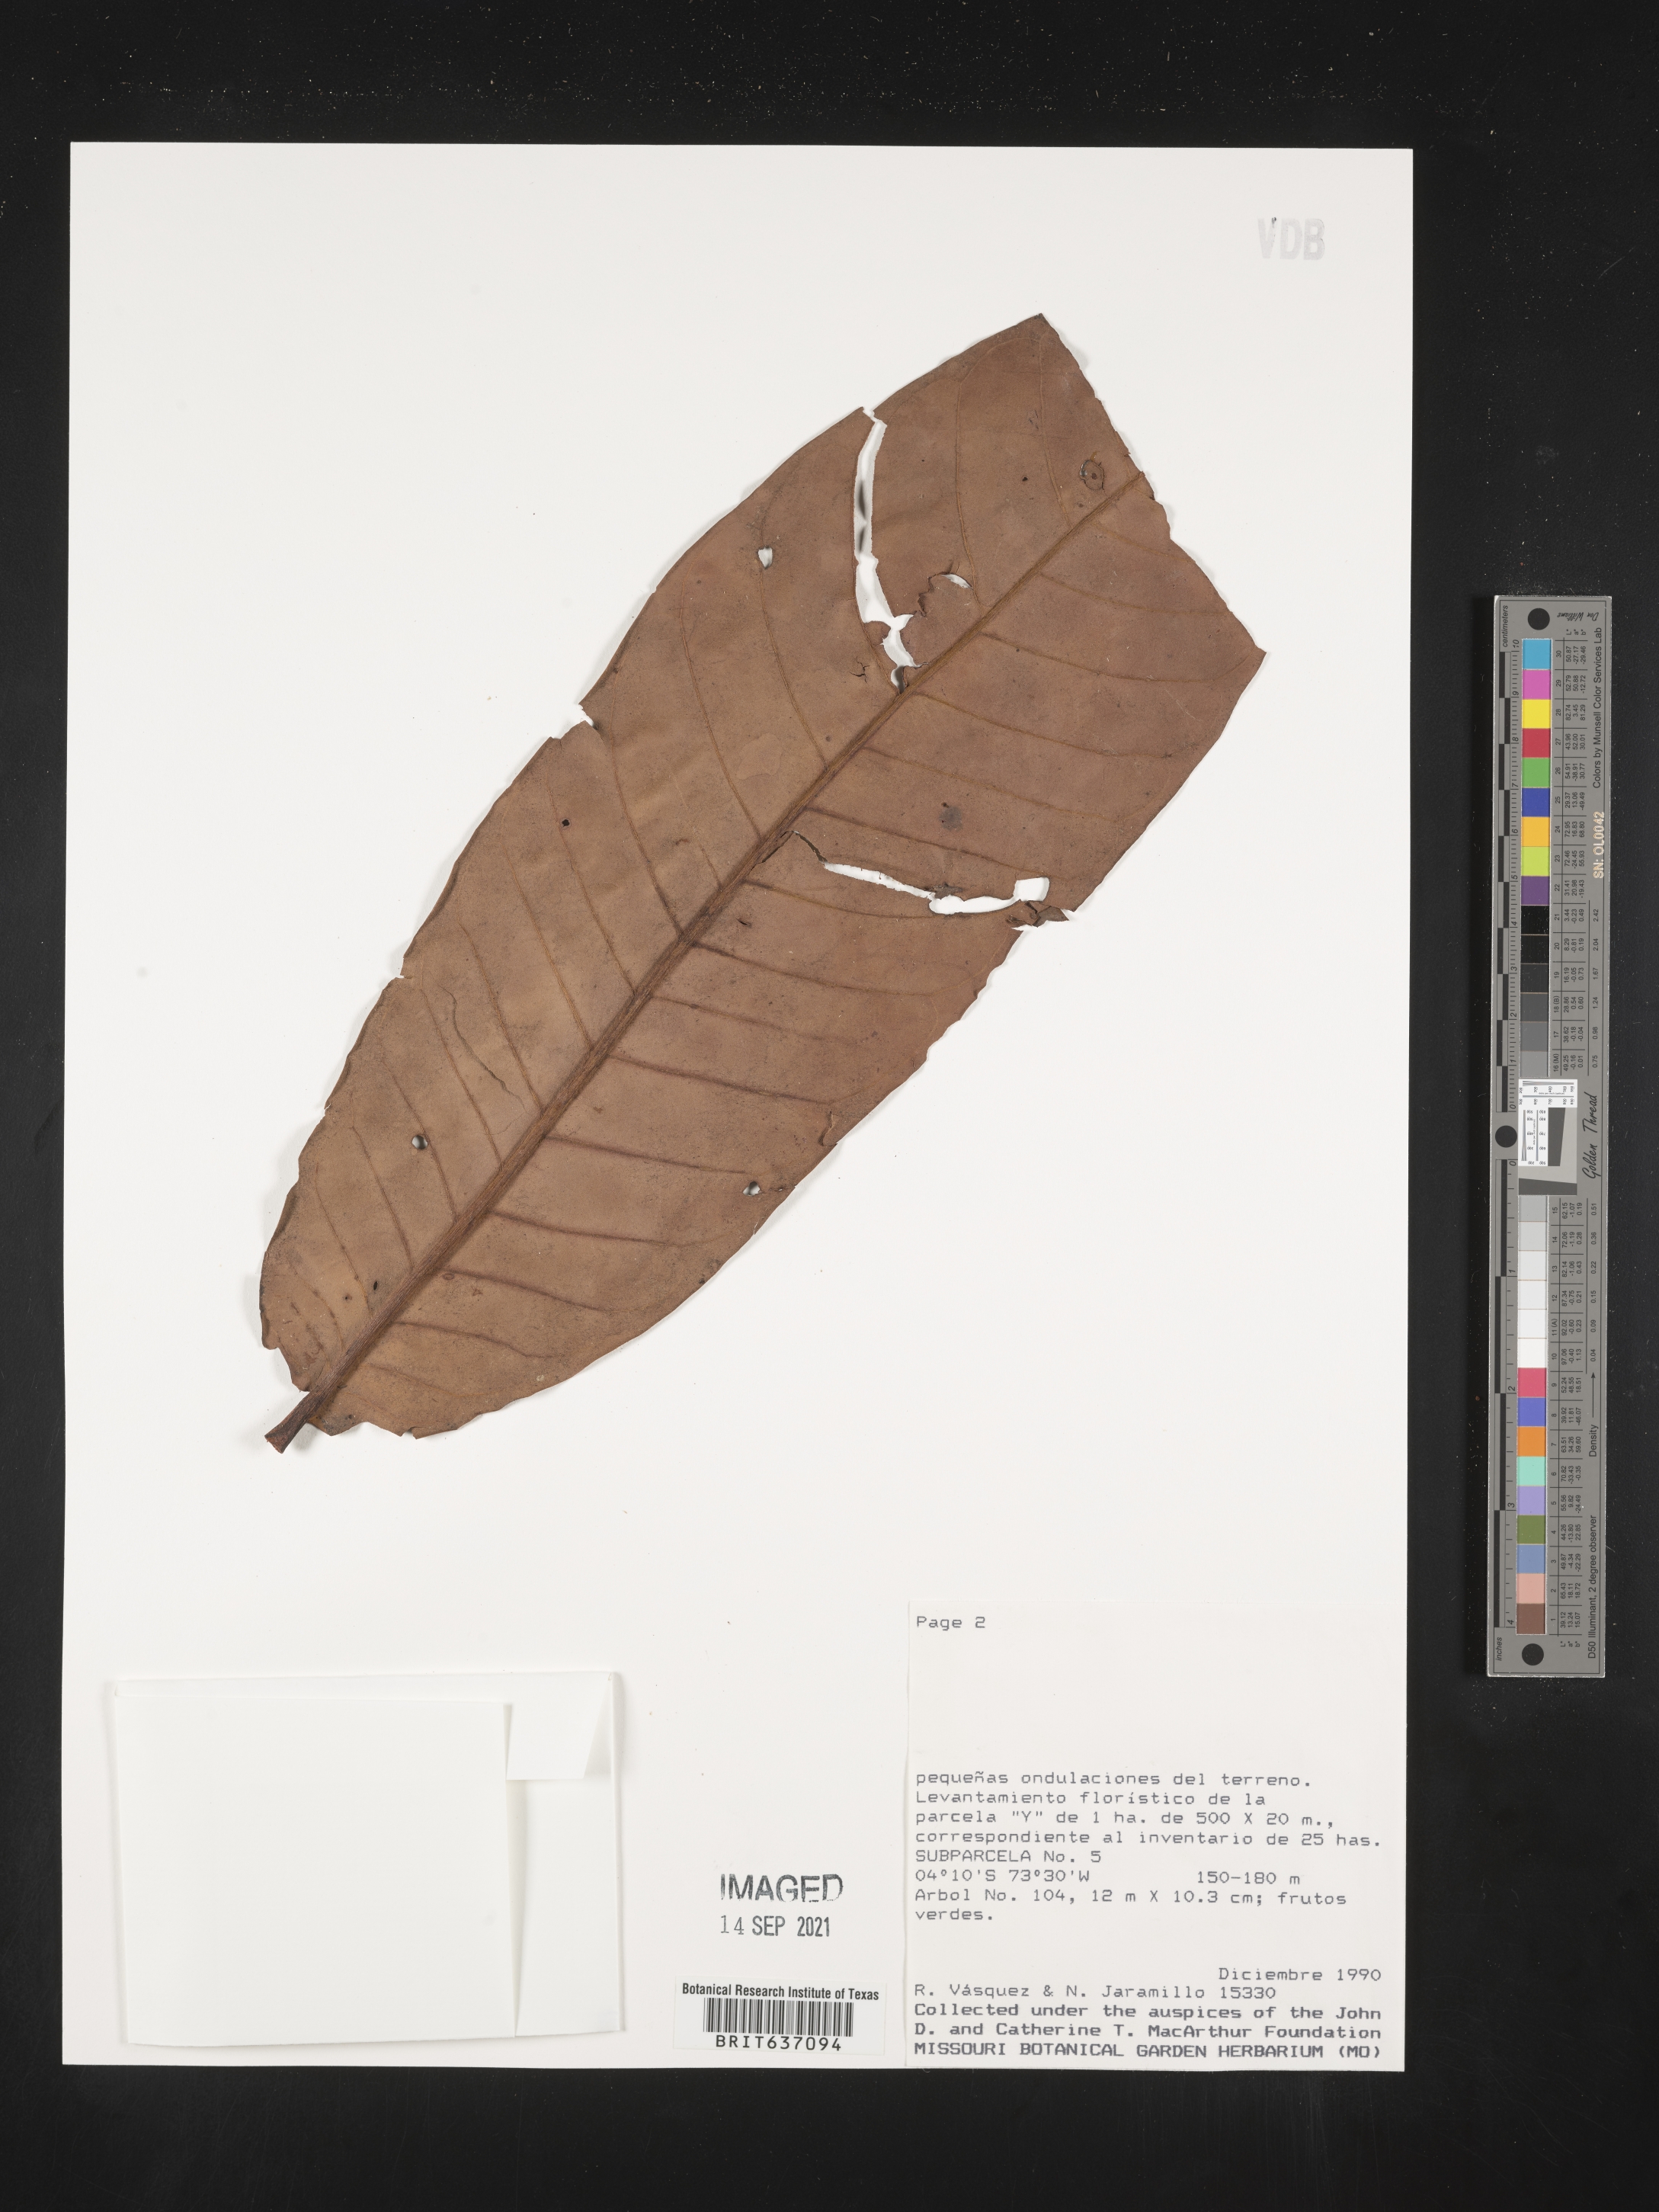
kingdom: Plantae
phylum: Tracheophyta
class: Magnoliopsida
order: Magnoliales
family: Myristicaceae
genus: Iryanthera
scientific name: Iryanthera
